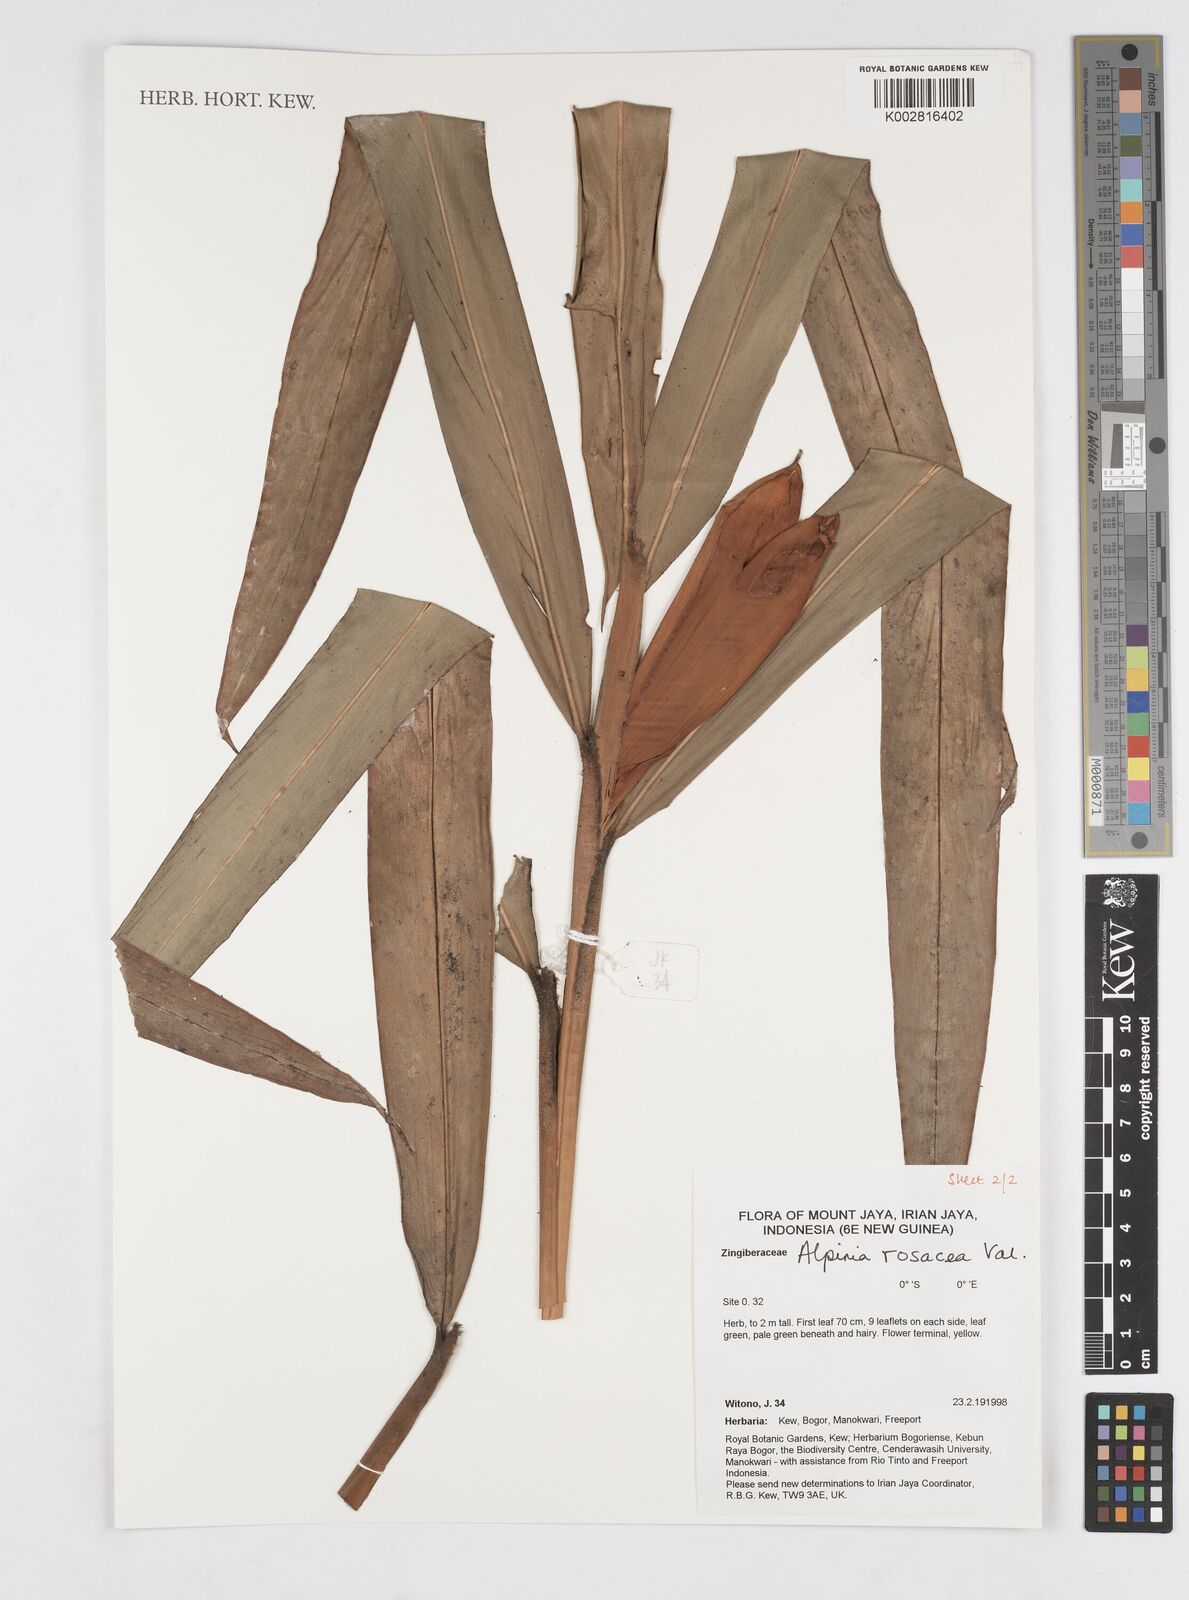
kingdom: Plantae
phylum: Tracheophyta
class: Liliopsida
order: Zingiberales
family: Zingiberaceae
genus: Alpinia
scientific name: Alpinia rosacea
